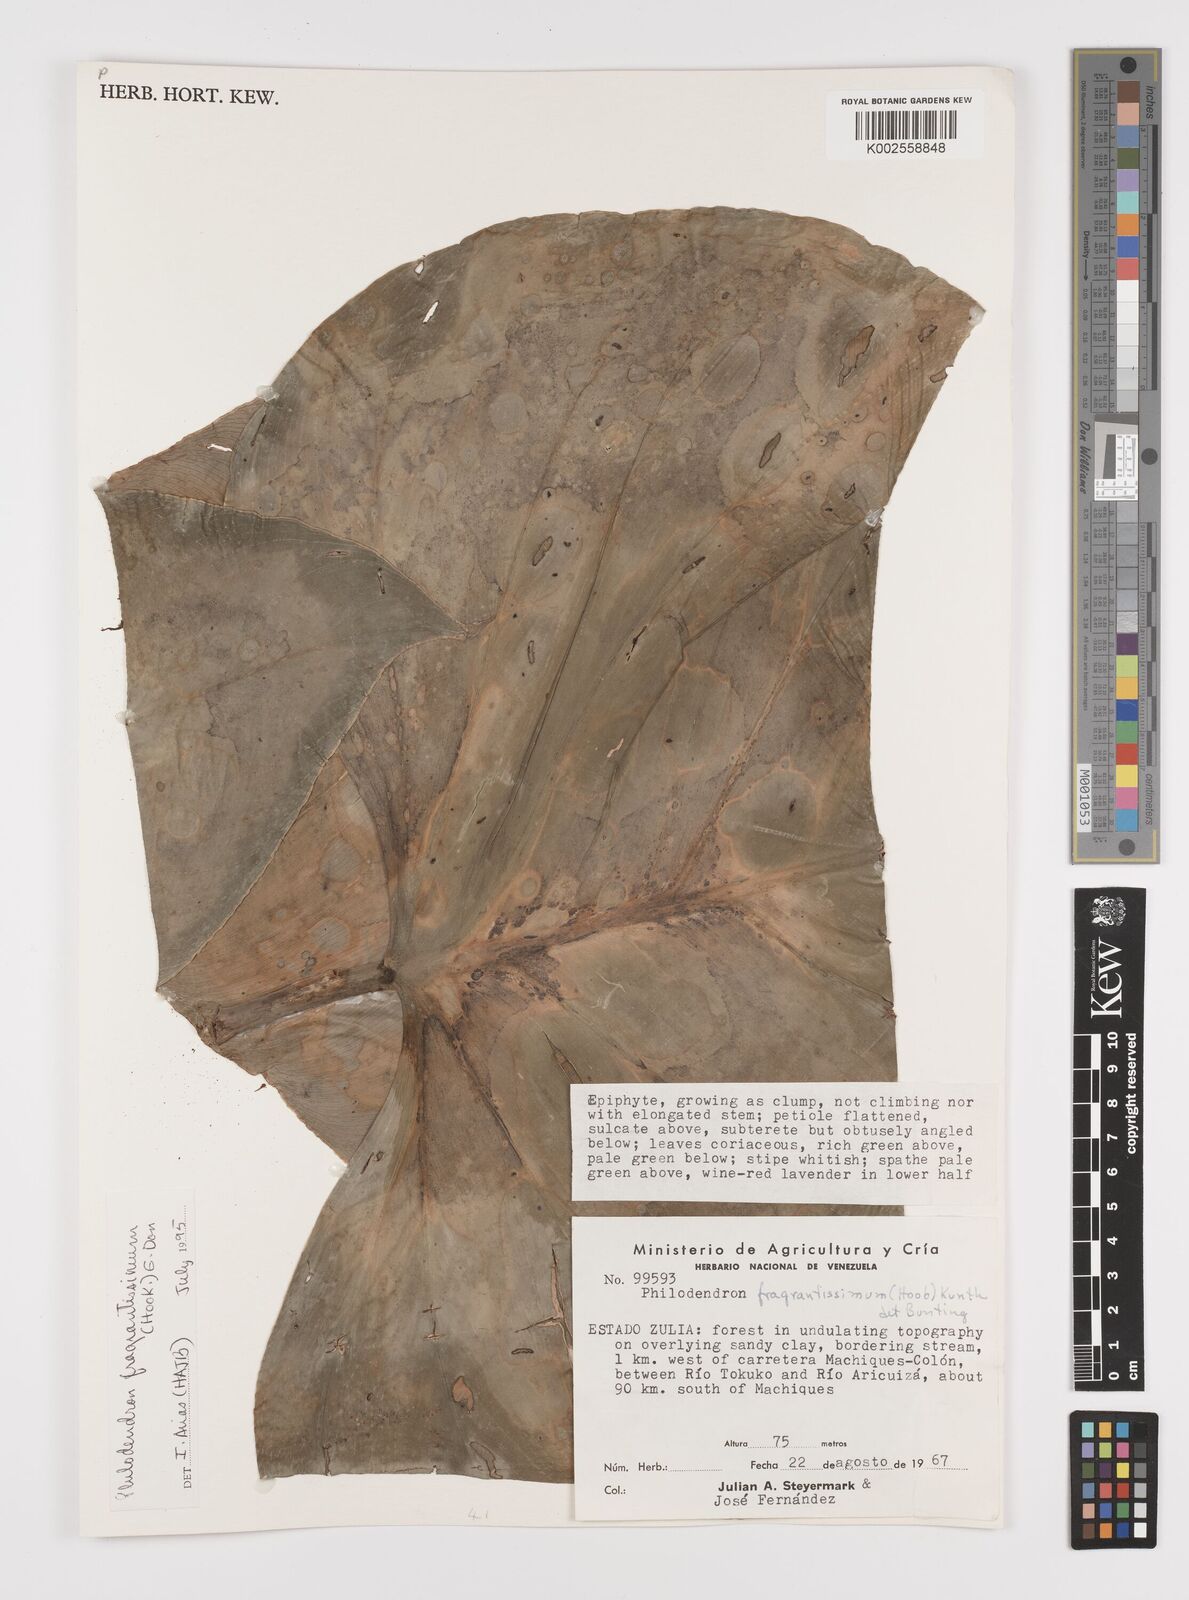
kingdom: Plantae
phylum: Tracheophyta
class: Liliopsida
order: Alismatales
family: Araceae
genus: Philodendron
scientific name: Philodendron fragrantissimum
